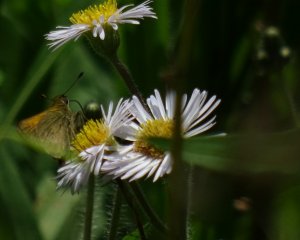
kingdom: Animalia
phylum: Arthropoda
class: Insecta
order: Lepidoptera
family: Hesperiidae
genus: Polites
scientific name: Polites themistocles
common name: Tawny-edged Skipper
